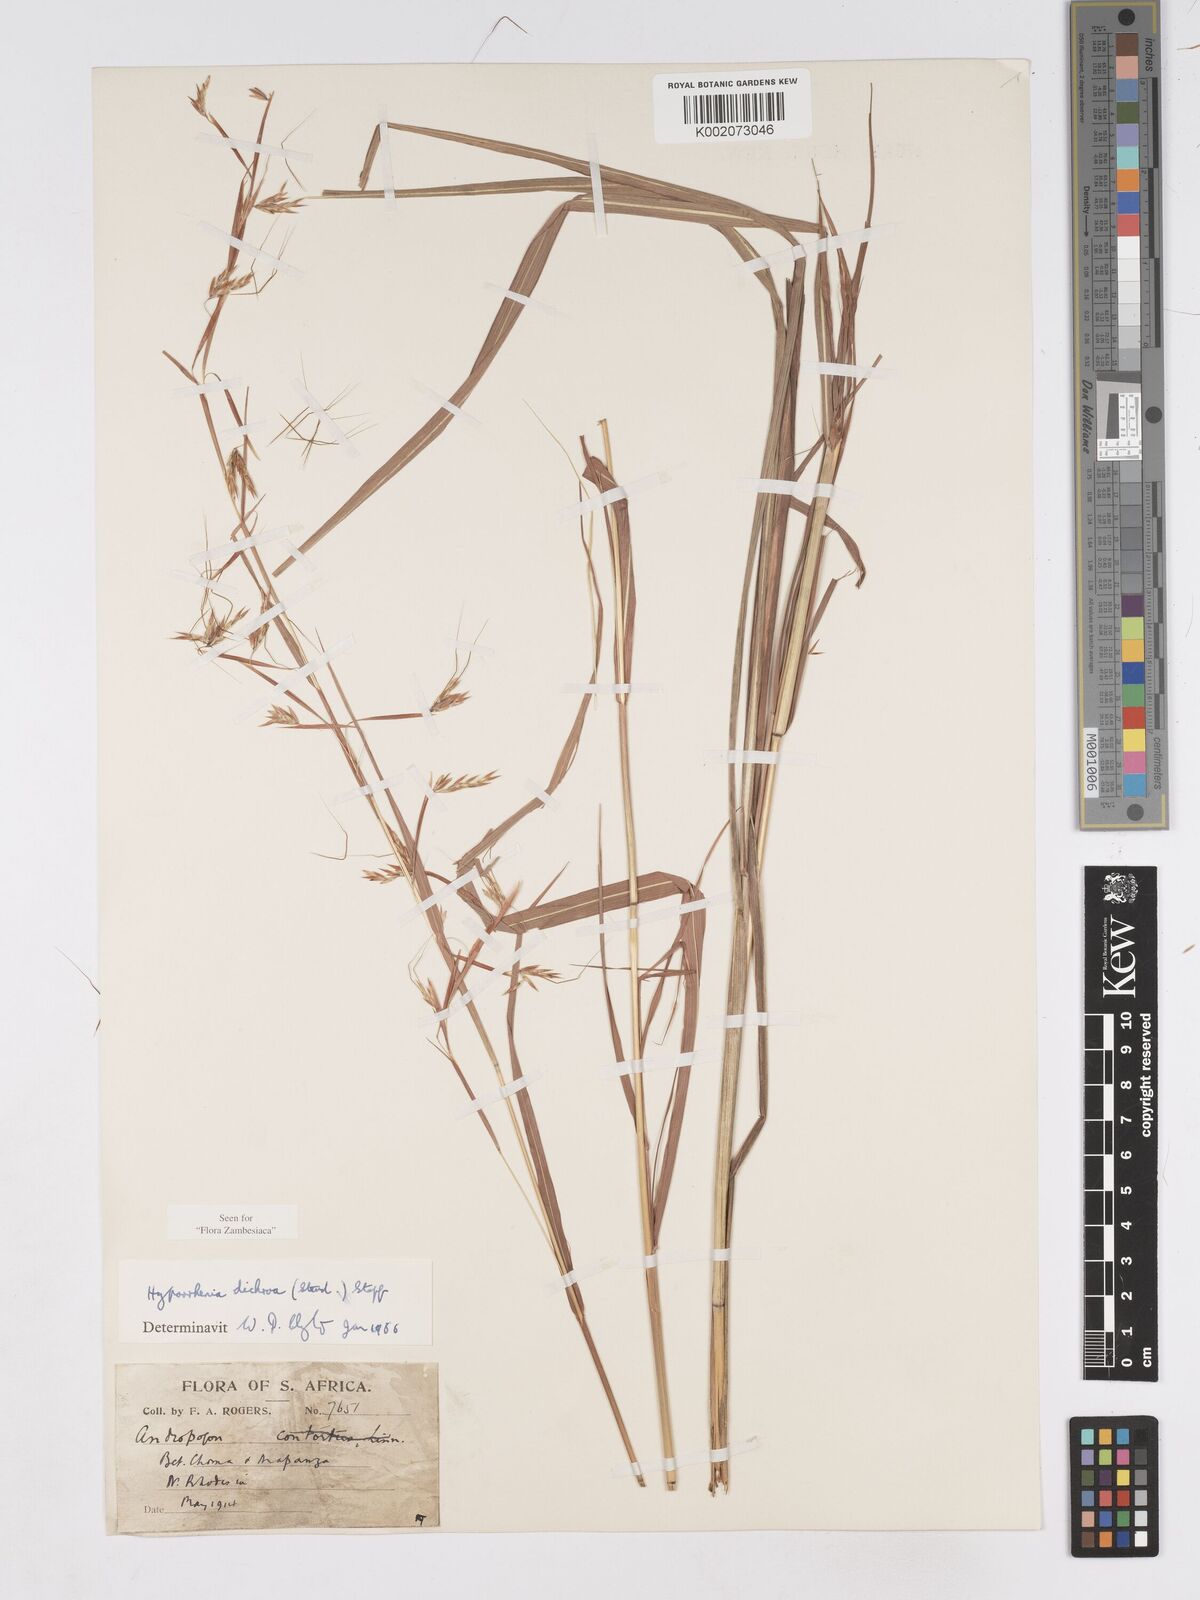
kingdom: Plantae
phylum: Tracheophyta
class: Liliopsida
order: Poales
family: Poaceae
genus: Hyparrhenia
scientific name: Hyparrhenia dichroa
